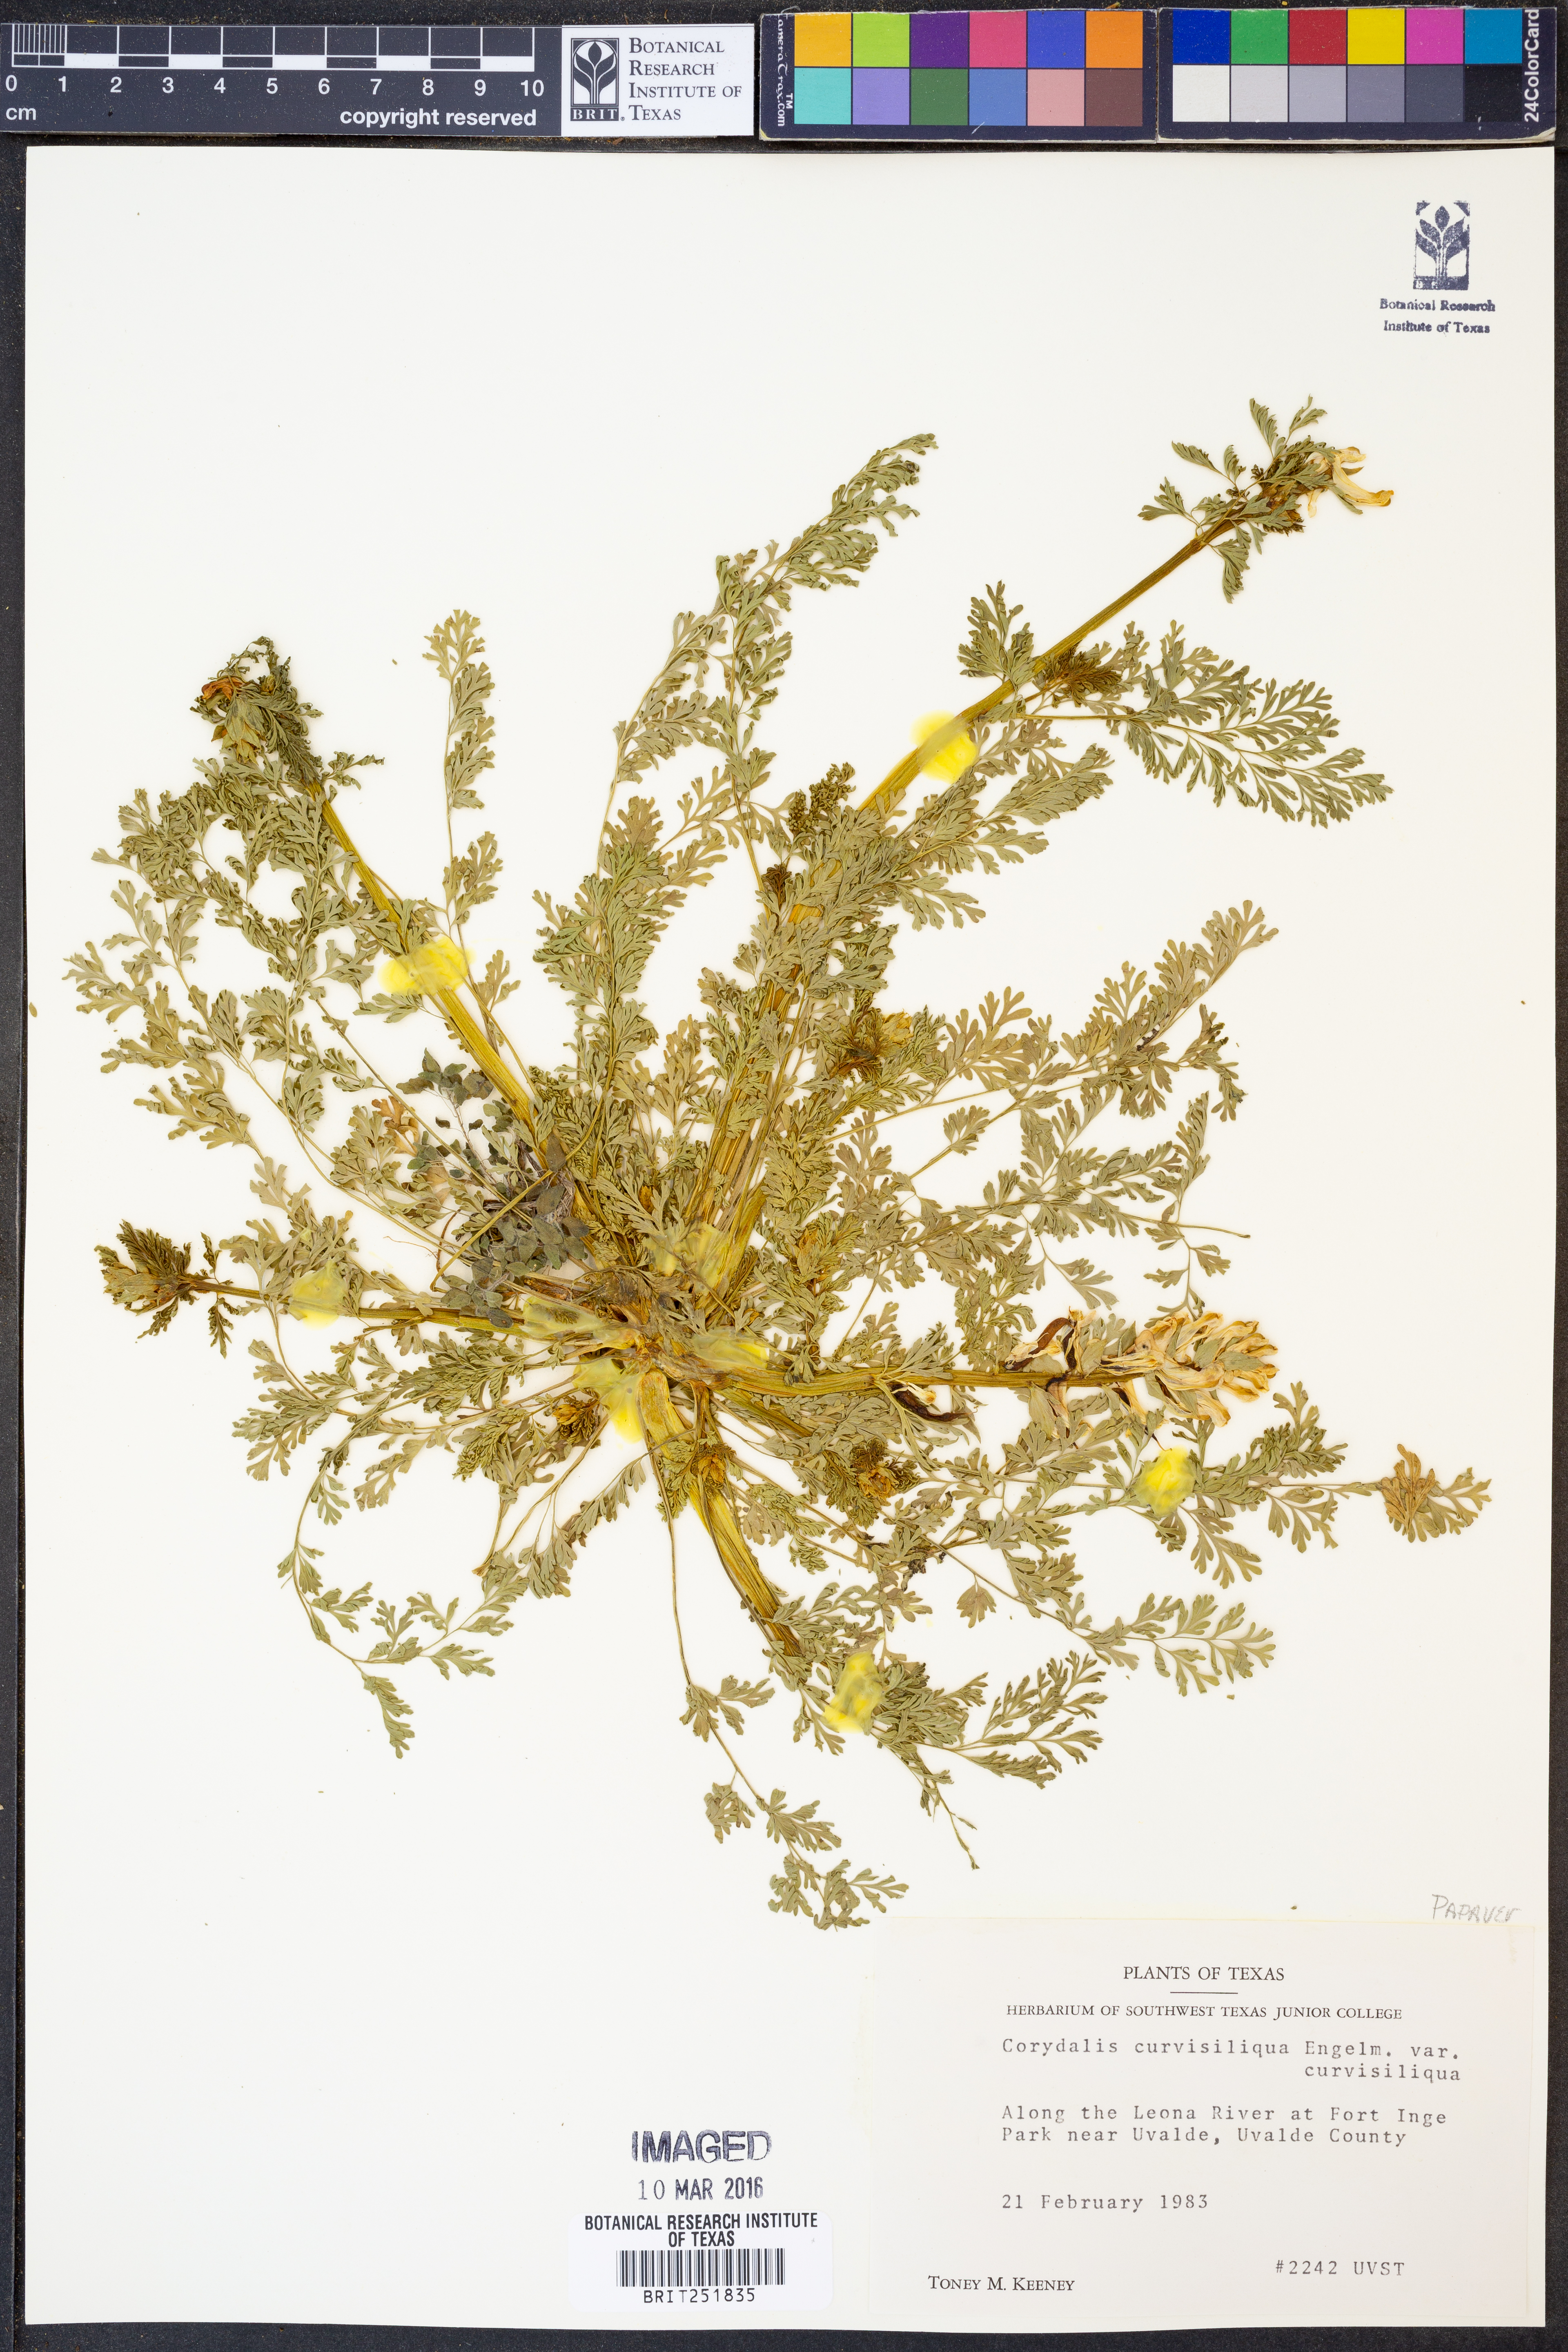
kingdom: Plantae
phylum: Tracheophyta
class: Magnoliopsida
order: Ranunculales
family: Papaveraceae
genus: Corydalis
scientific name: Corydalis curvisiliqua
